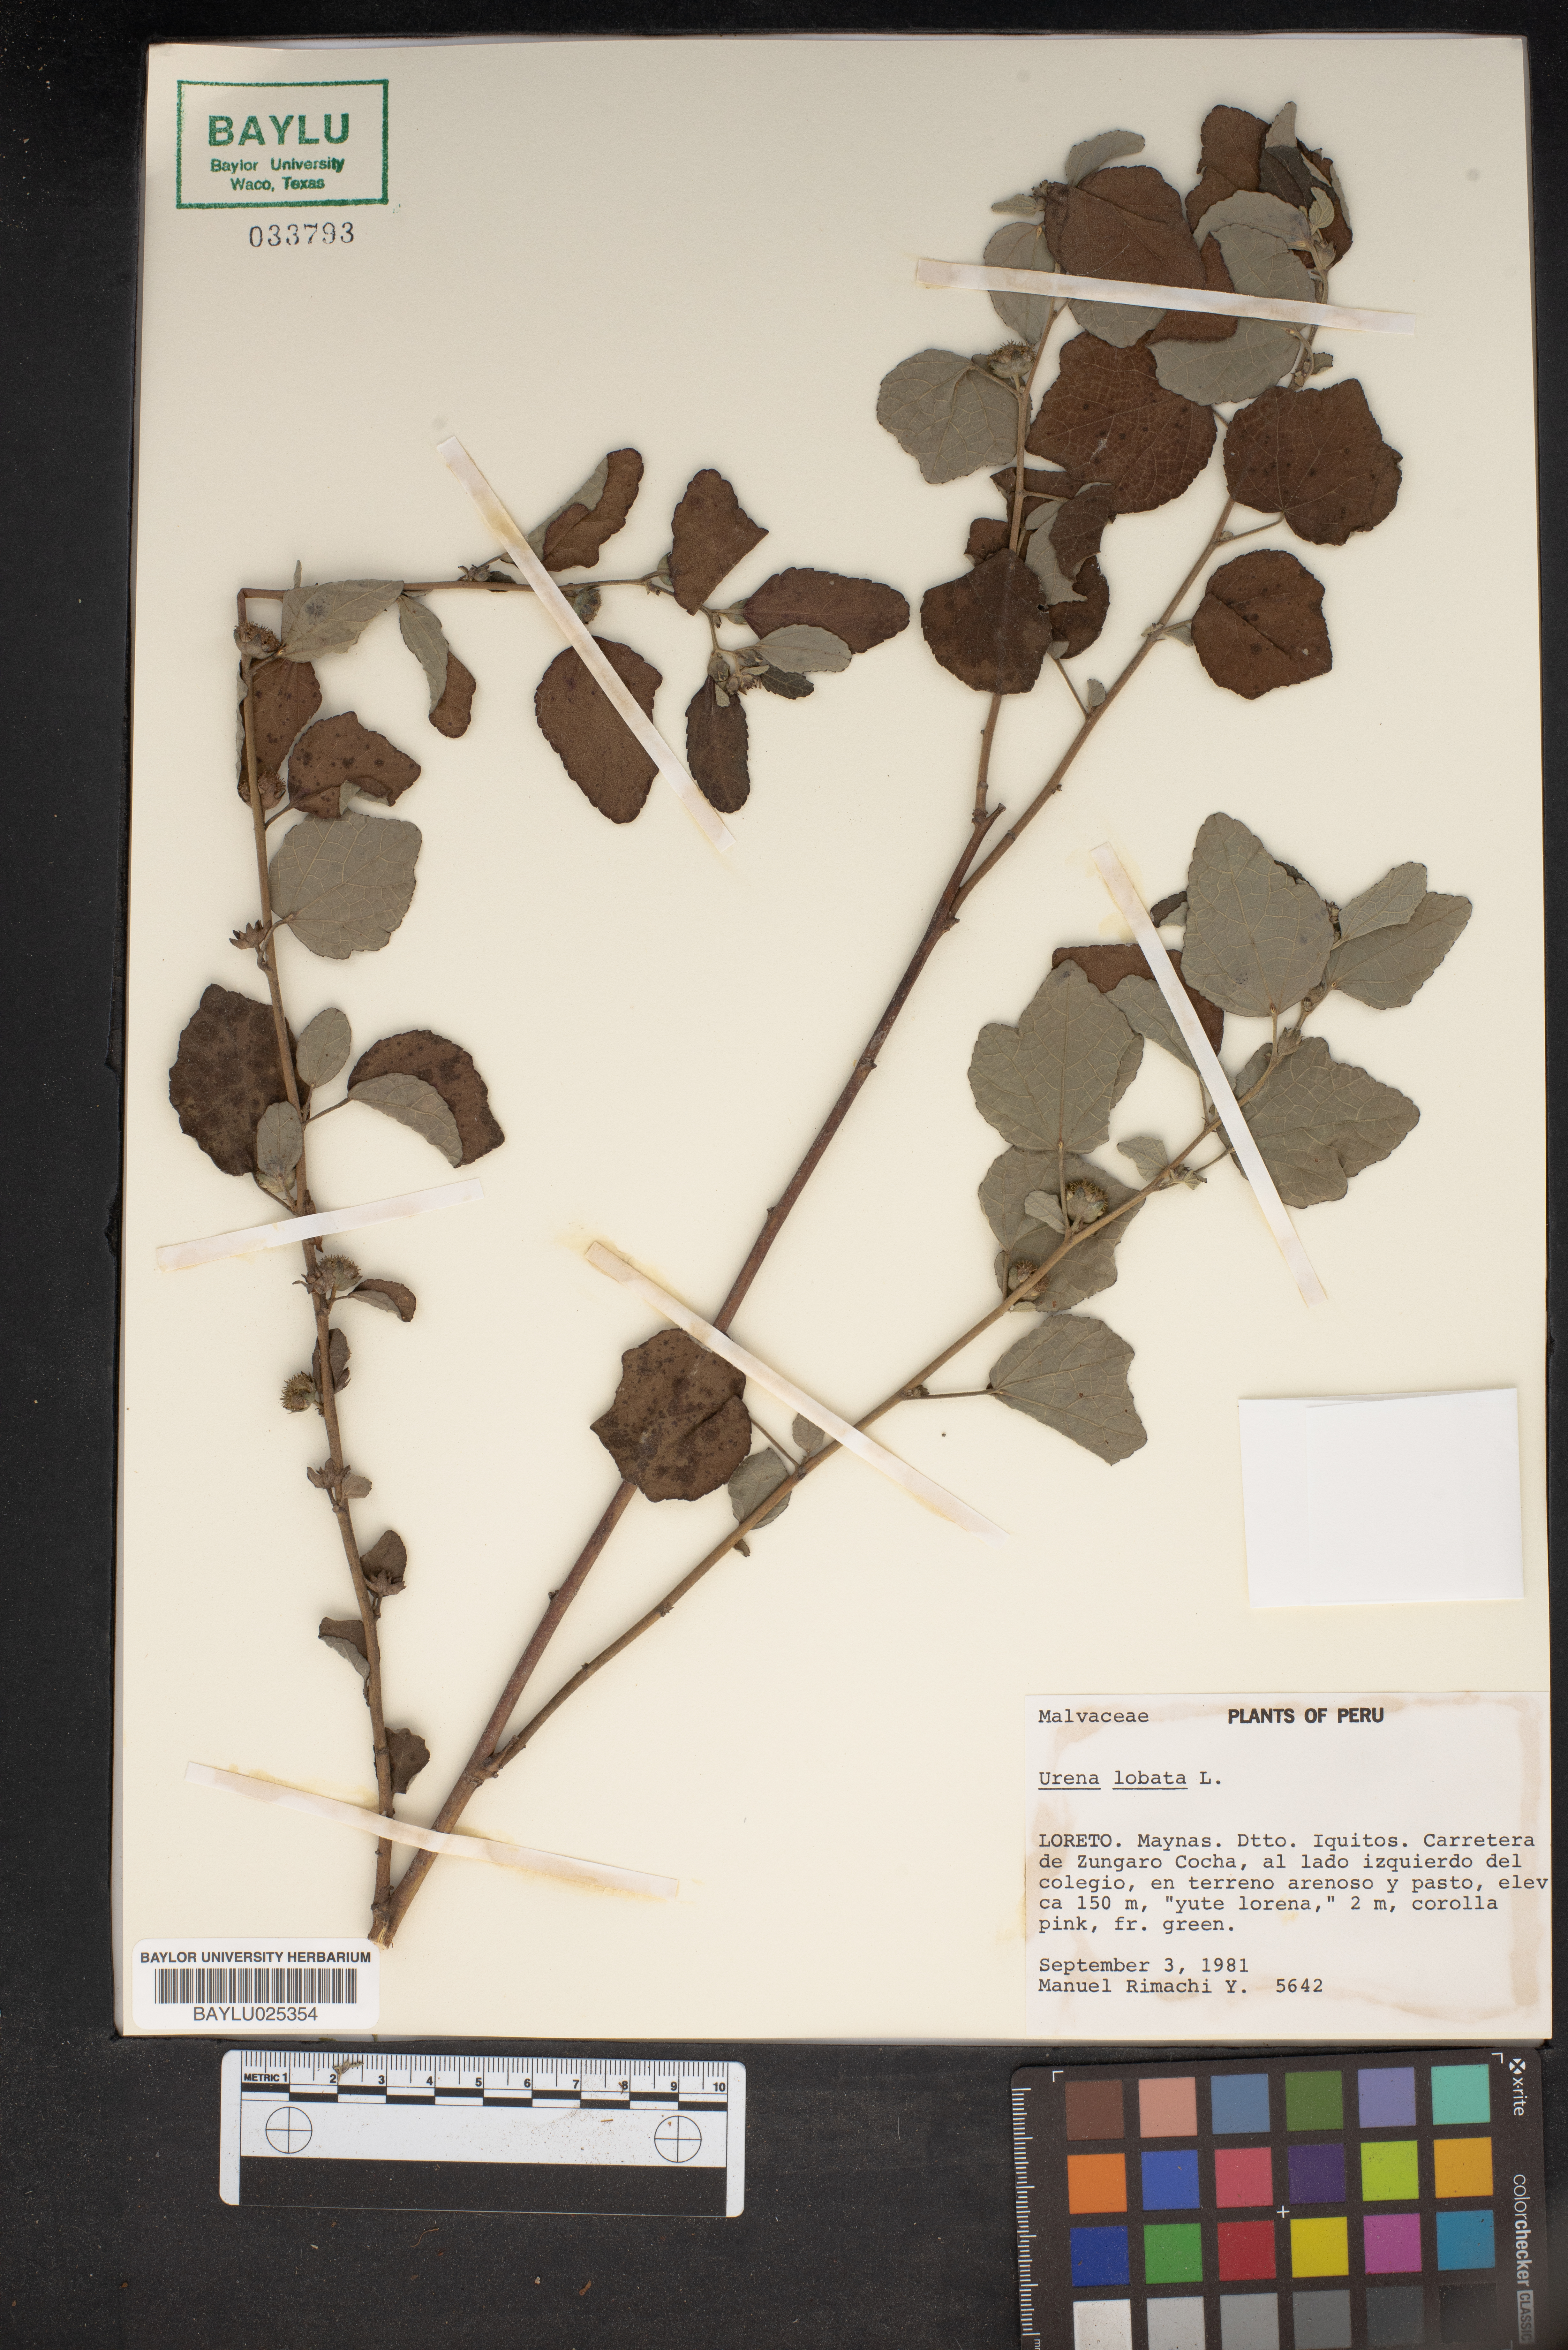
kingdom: Plantae
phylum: Tracheophyta
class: Magnoliopsida
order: Malvales
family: Malvaceae
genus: Urena
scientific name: Urena lobata
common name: Caesarweed
